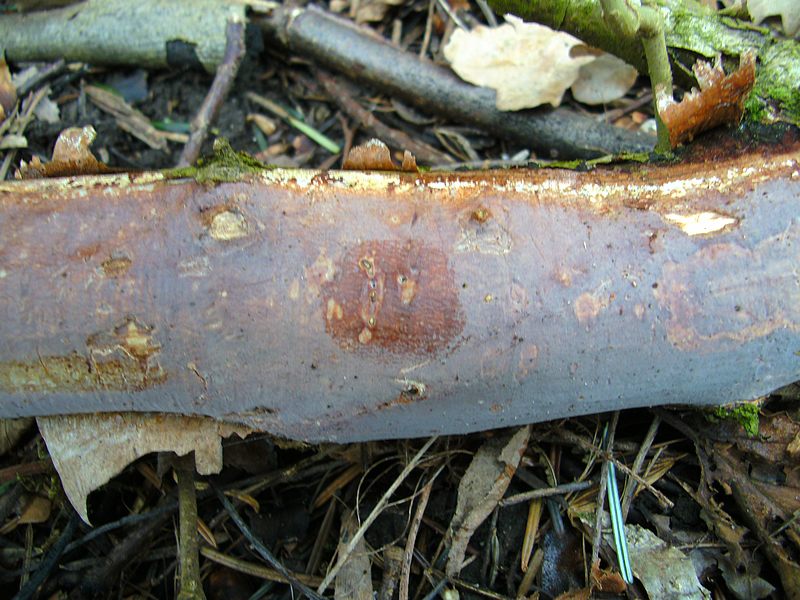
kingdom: Fungi
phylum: Basidiomycota
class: Tremellomycetes
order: Tremellales
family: Exidiaceae
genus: Exidiopsis
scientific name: Exidiopsis effusa
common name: smuk bævrehinde
